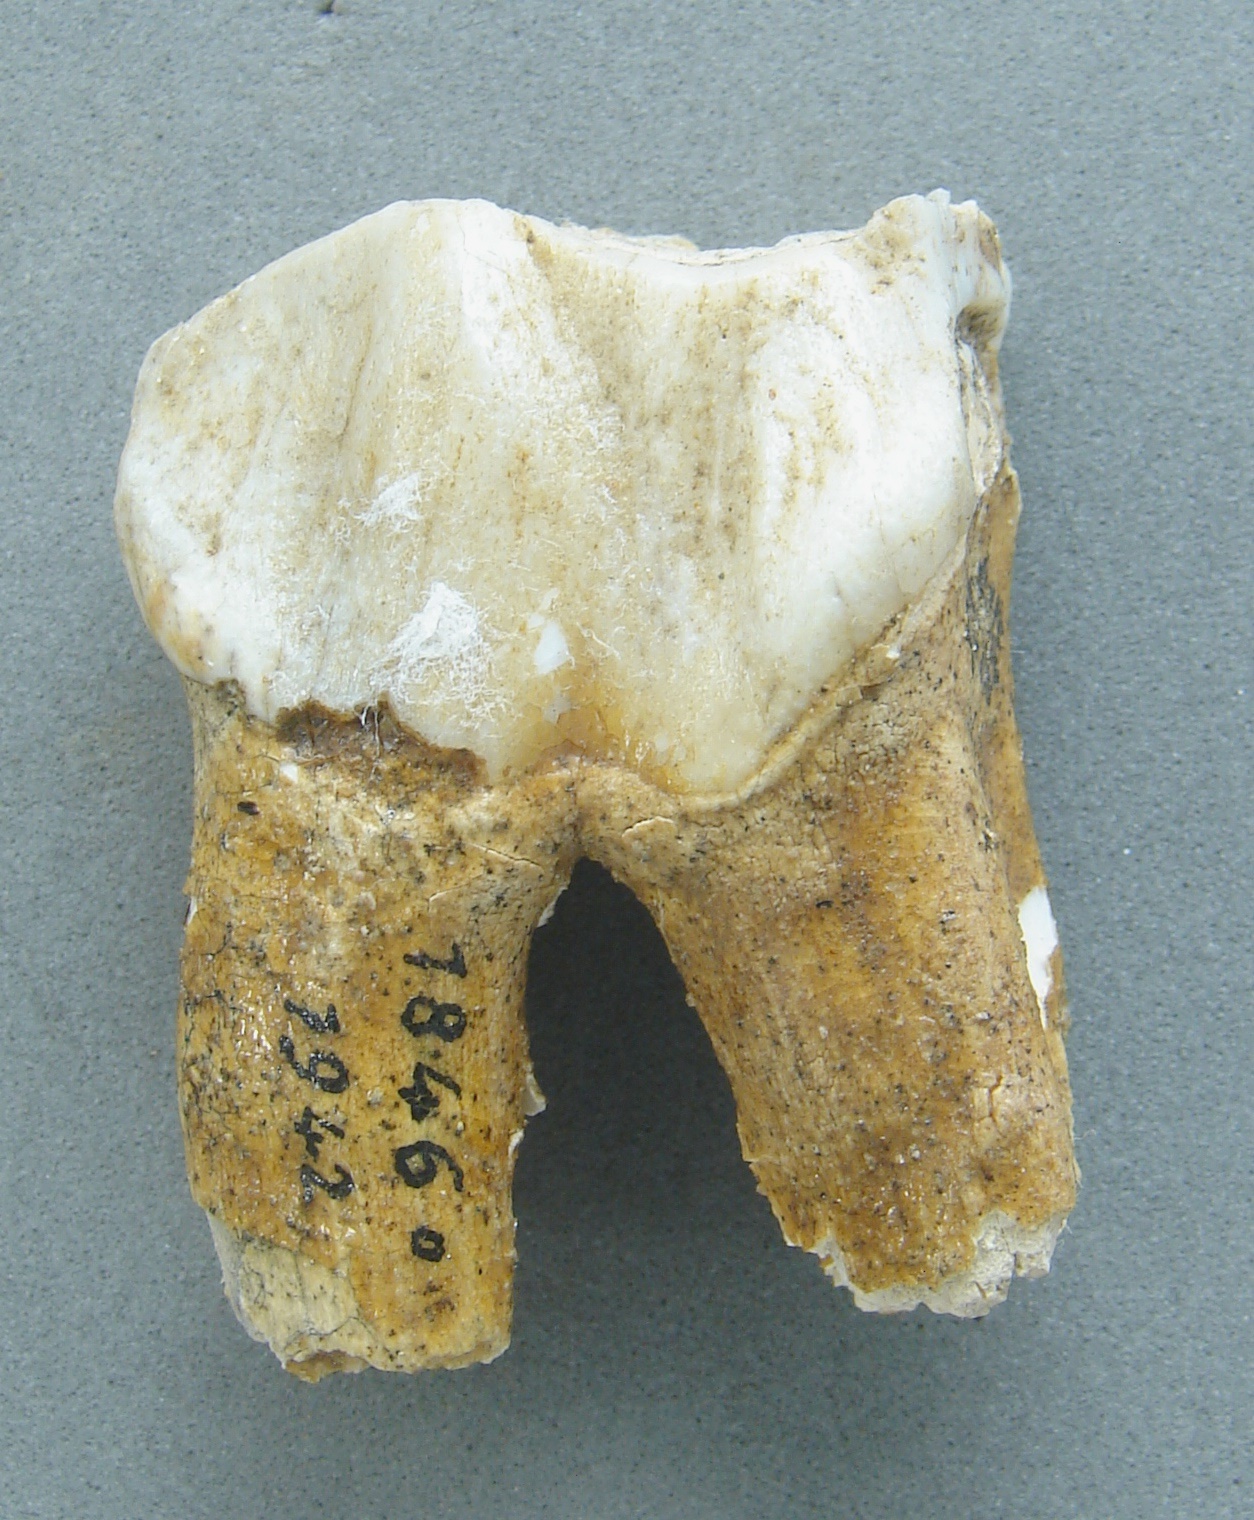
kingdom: Animalia
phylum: Chordata
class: Mammalia
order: Perissodactyla
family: Rhinocerotidae
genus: Rhinoceros
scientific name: Rhinoceros
